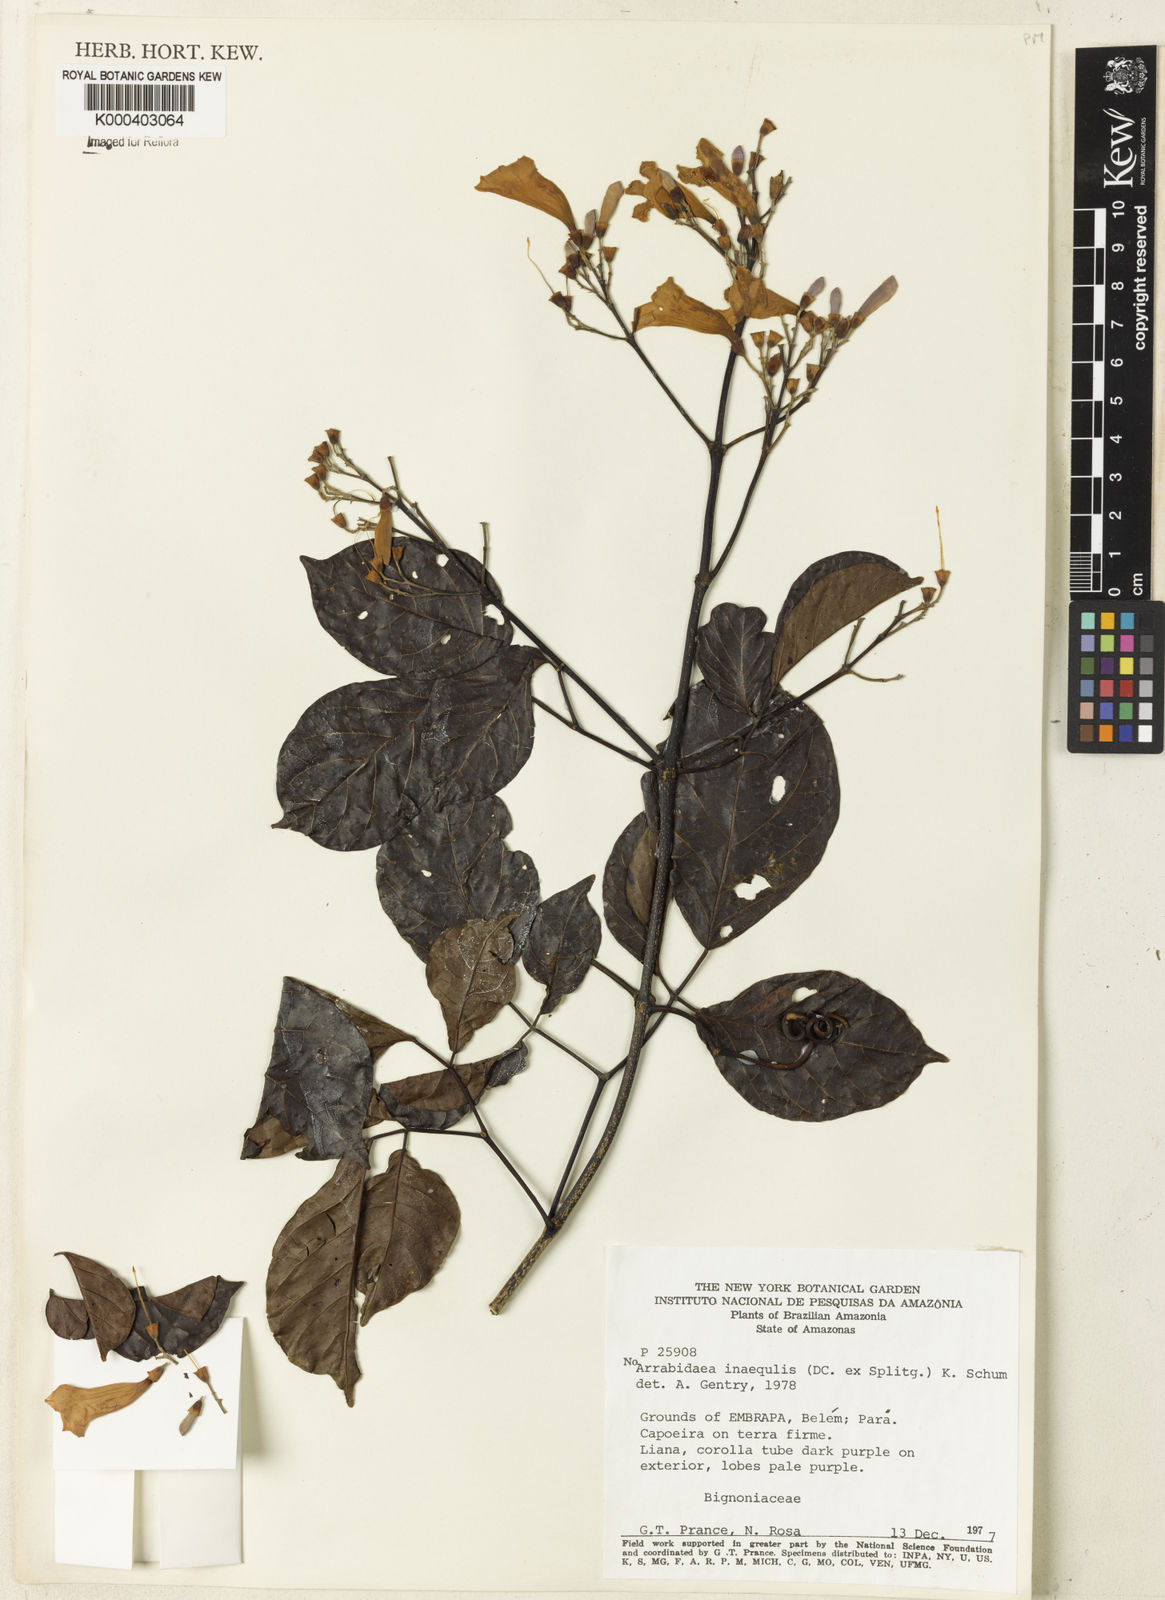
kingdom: Plantae
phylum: Tracheophyta
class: Magnoliopsida
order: Lamiales
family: Bignoniaceae
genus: Cuspidaria
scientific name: Cuspidaria inaequalis
